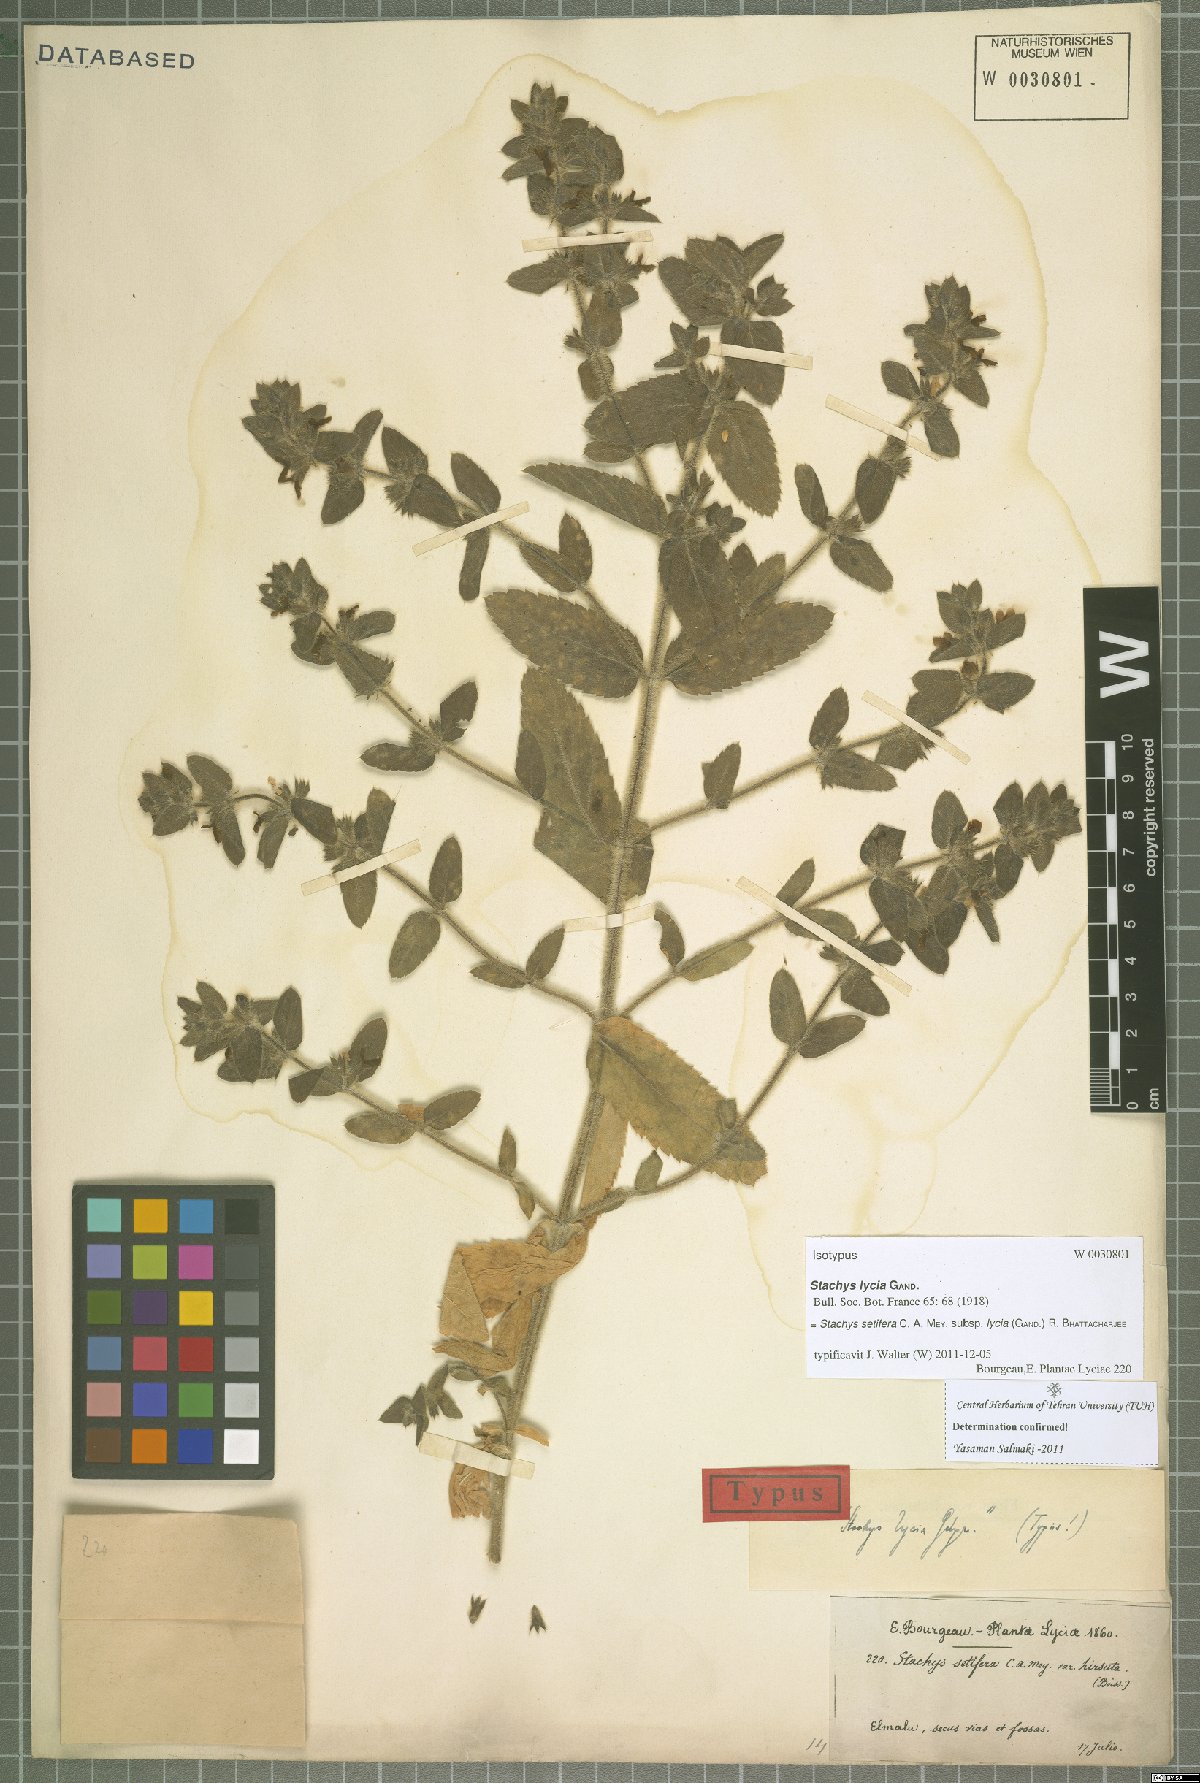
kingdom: Plantae
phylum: Tracheophyta
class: Magnoliopsida
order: Lamiales
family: Lamiaceae
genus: Stachys
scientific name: Stachys setifera
